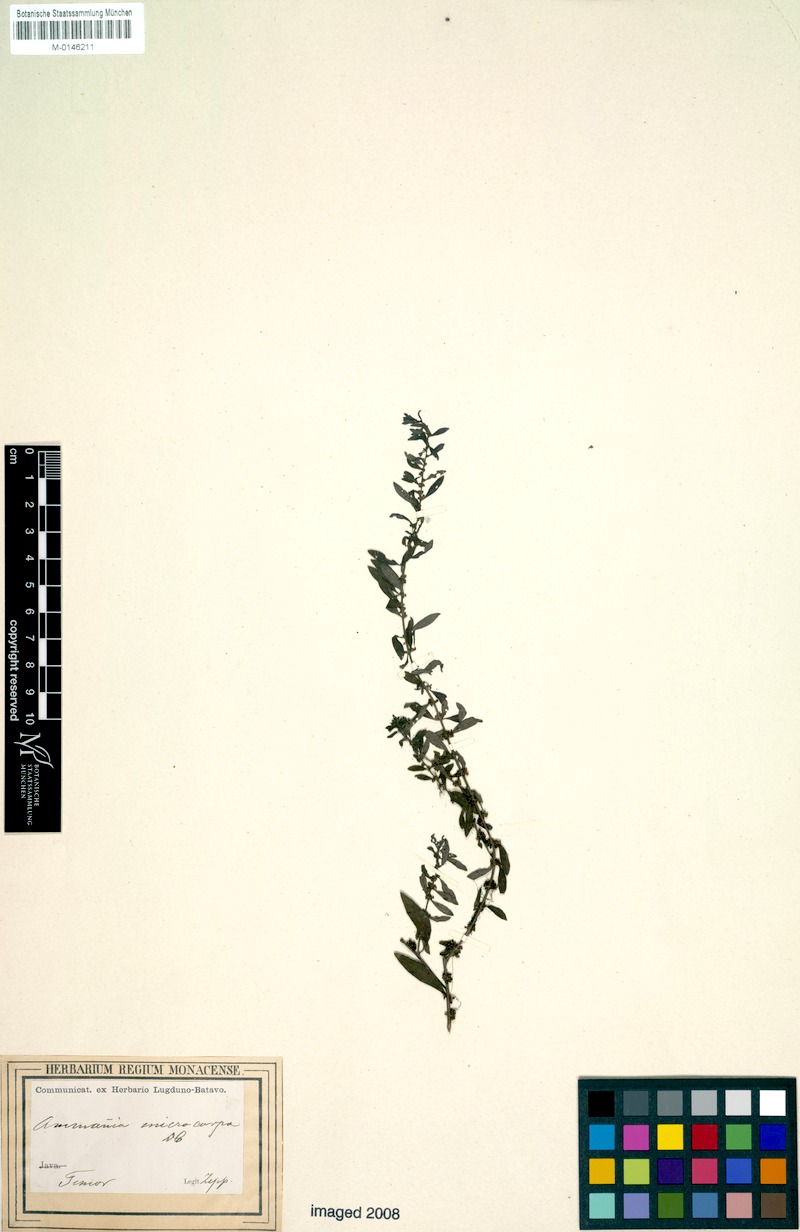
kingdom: Plantae
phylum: Tracheophyta
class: Magnoliopsida
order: Myrtales
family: Lythraceae
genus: Ammannia
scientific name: Ammannia auriculata
